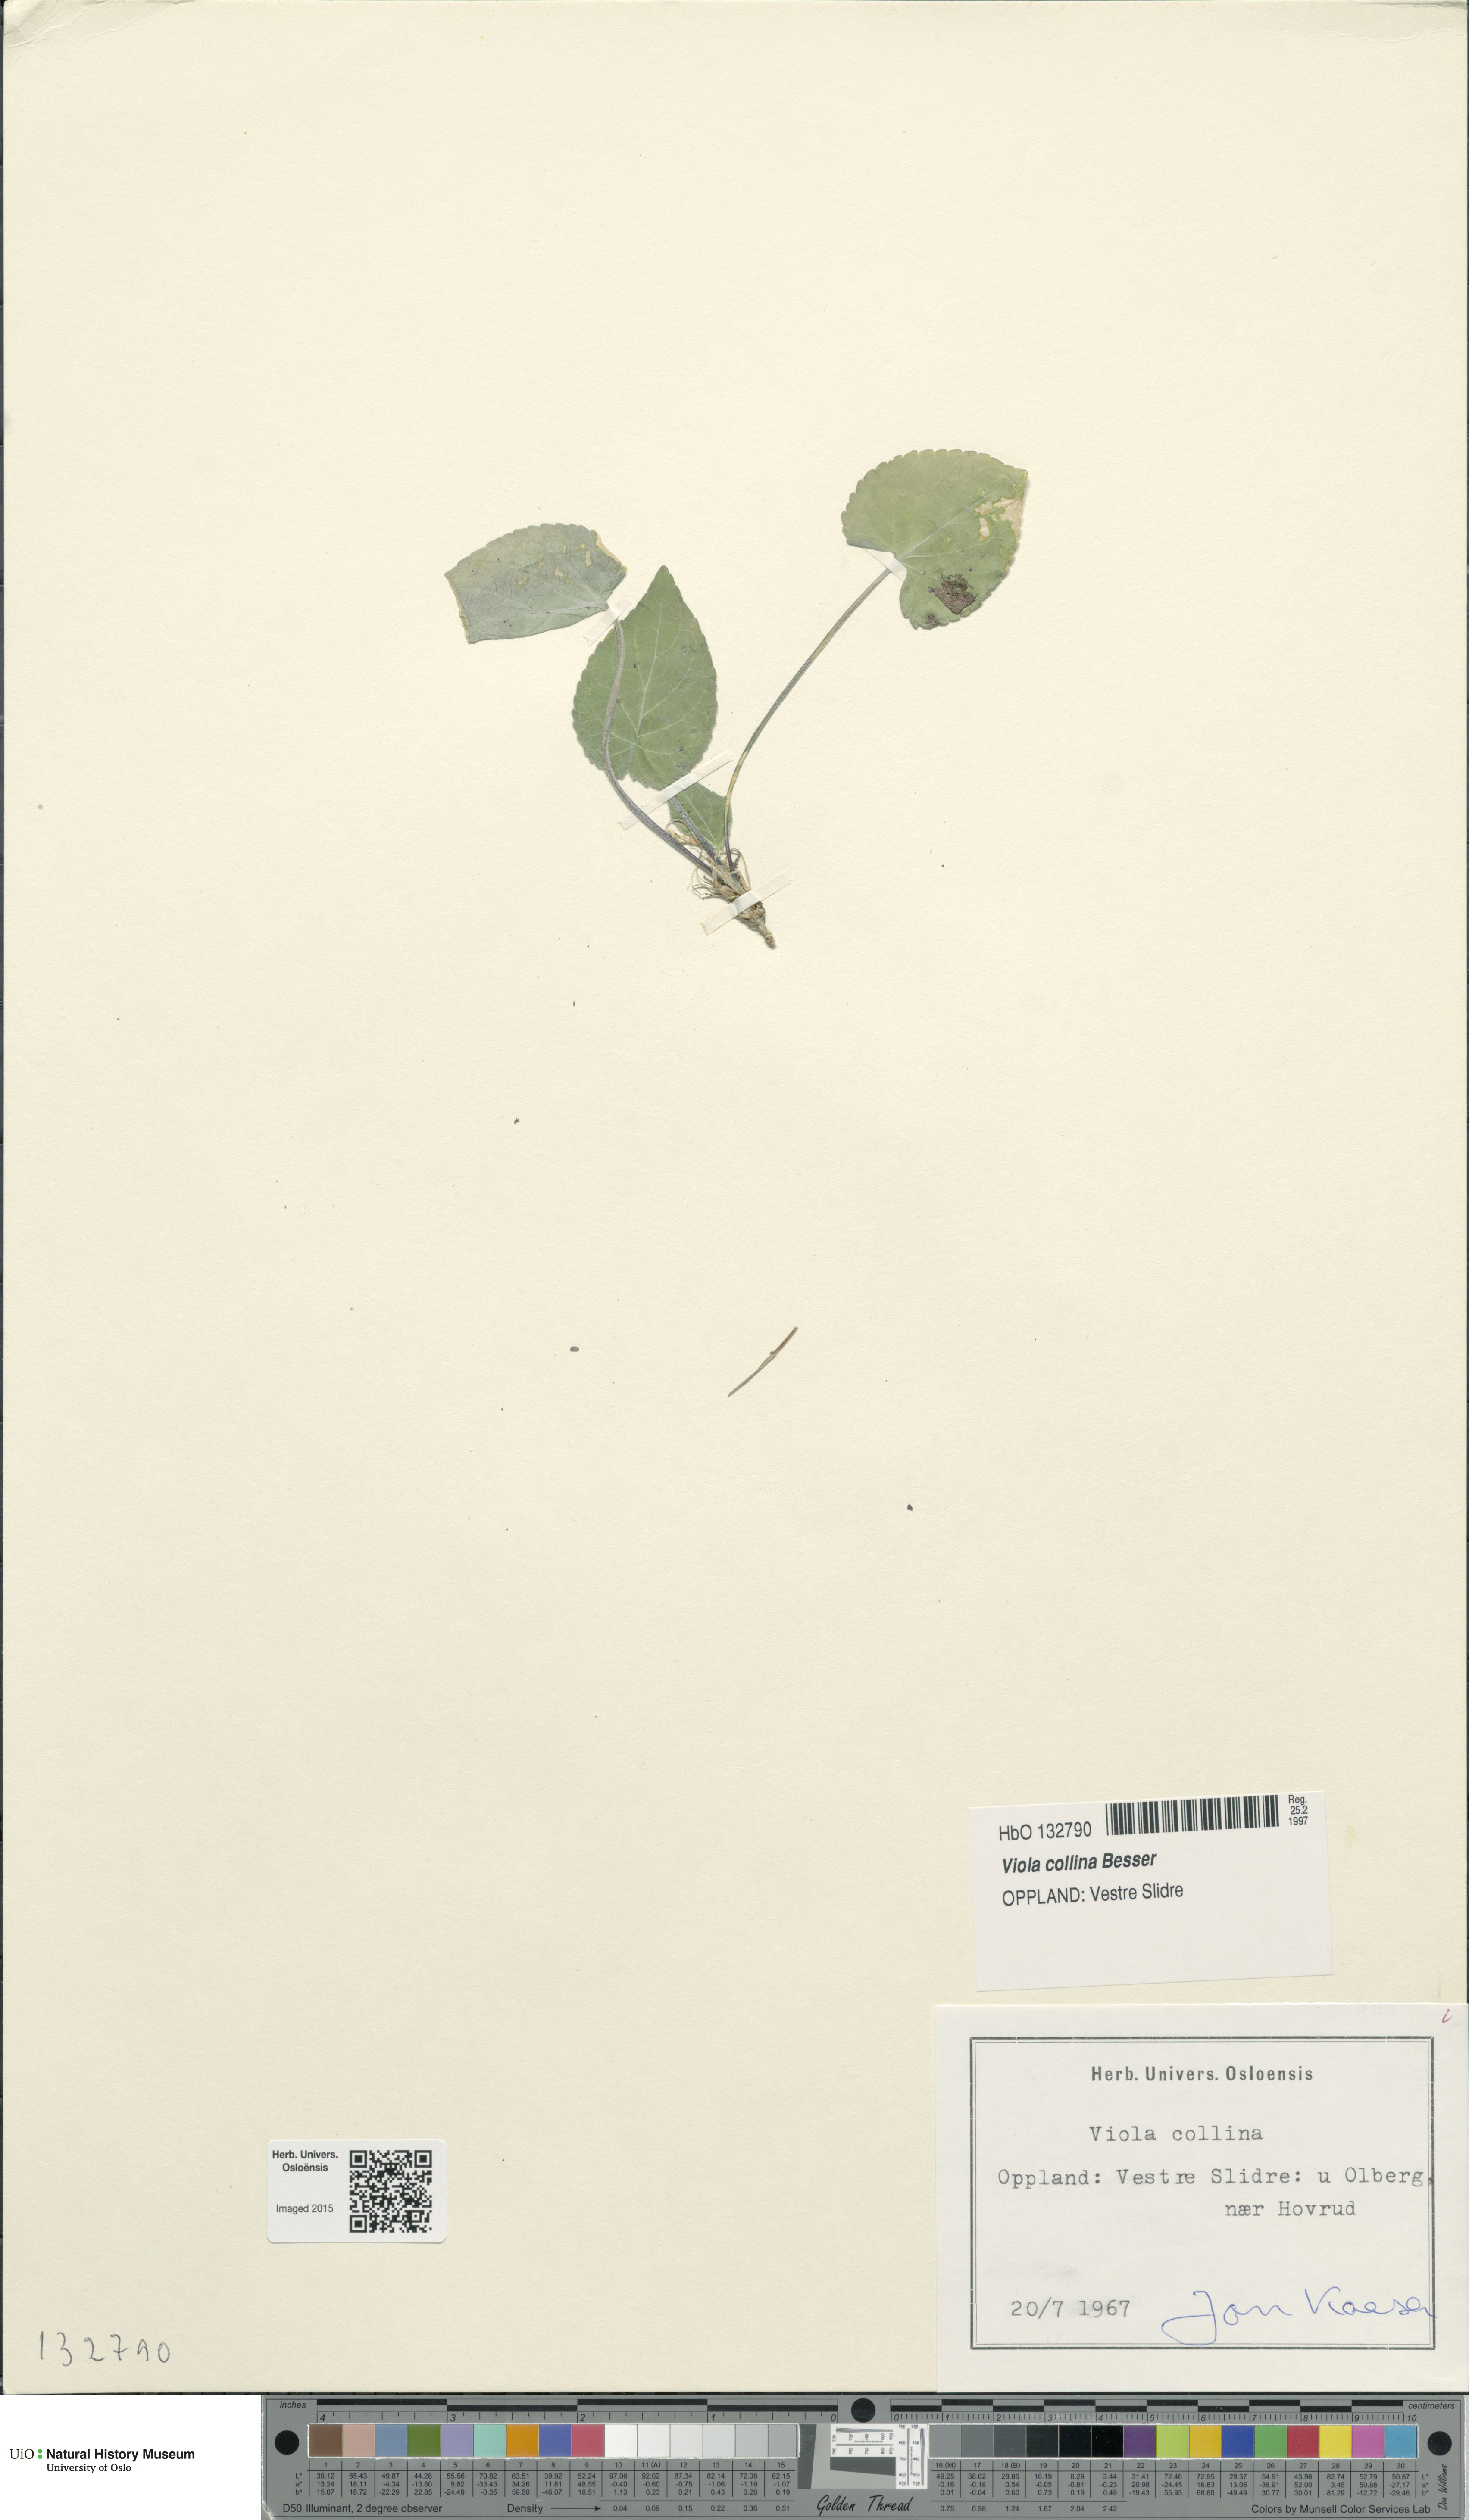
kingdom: Plantae
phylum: Tracheophyta
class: Magnoliopsida
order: Malpighiales
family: Violaceae
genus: Viola
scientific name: Viola collina
